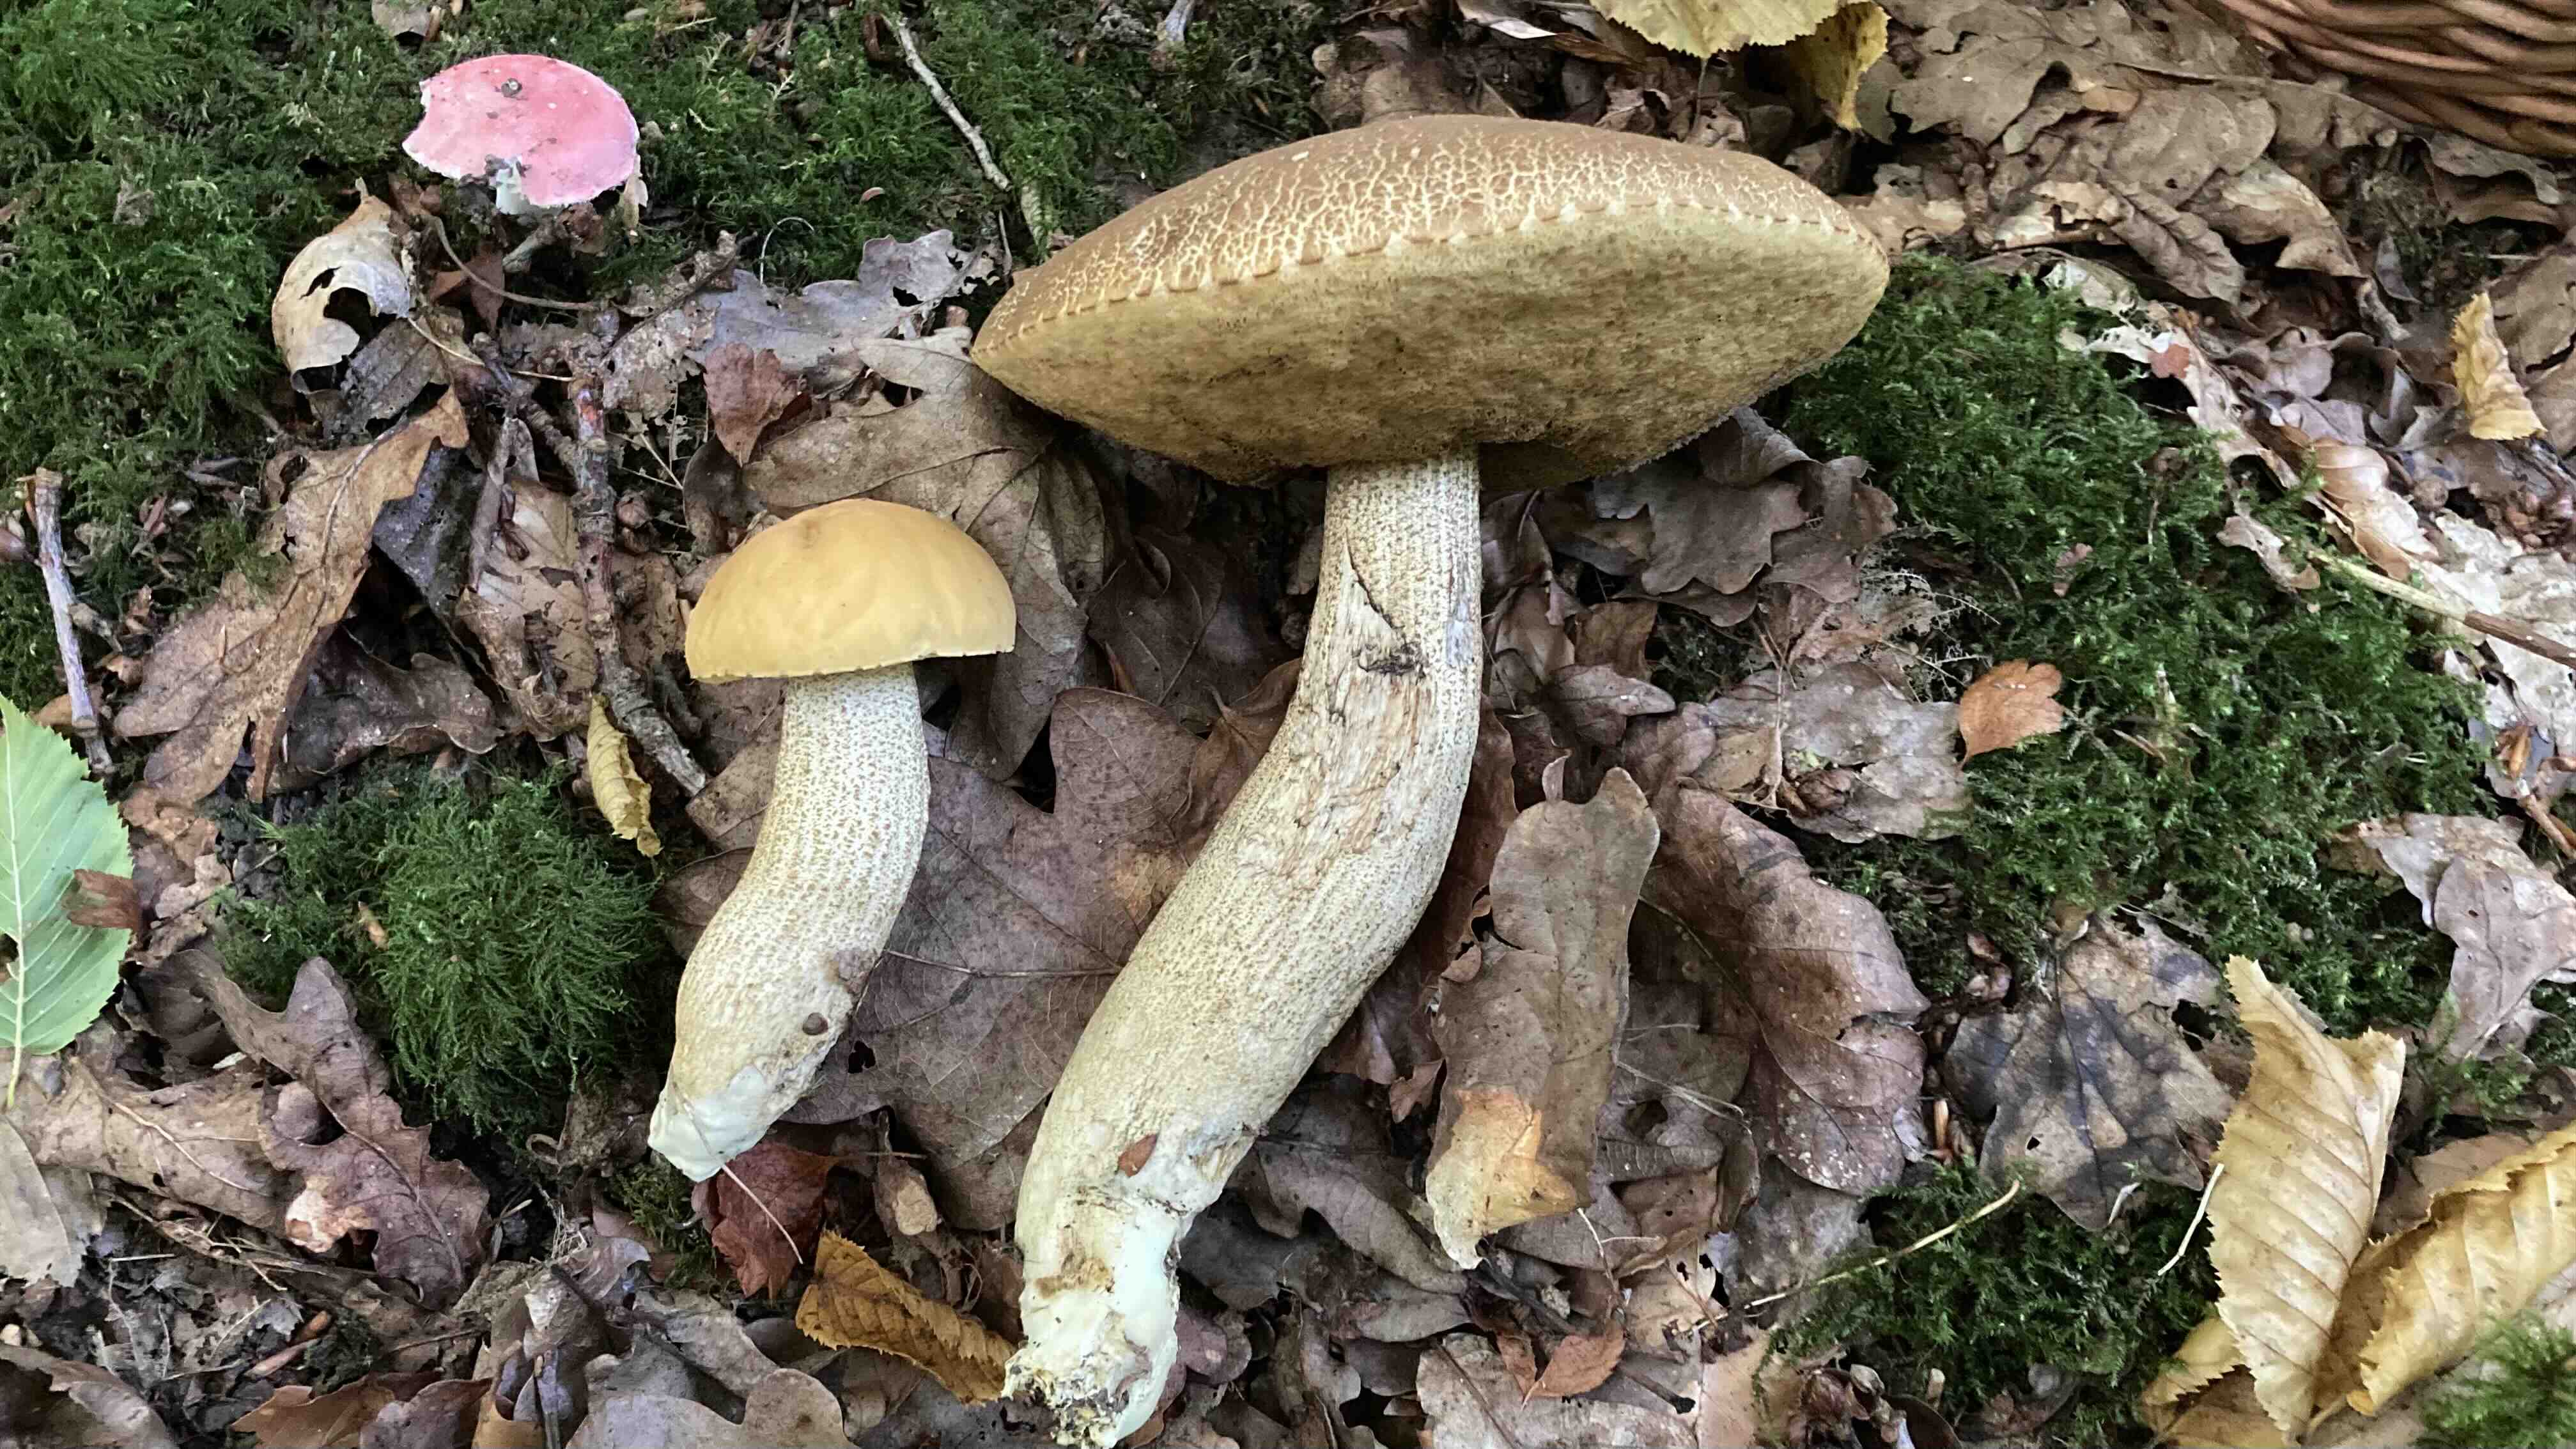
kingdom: Fungi
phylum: Basidiomycota
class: Agaricomycetes
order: Boletales
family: Boletaceae
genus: Leccinellum
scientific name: Leccinellum crocipodium
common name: gul skælrørhat
